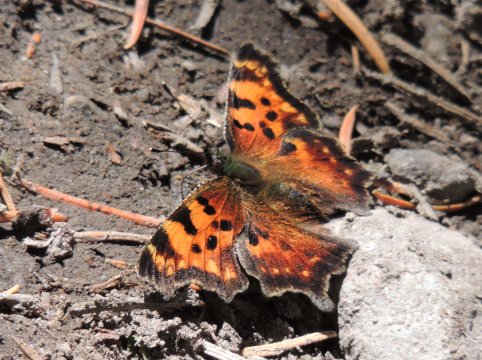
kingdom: Animalia
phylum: Arthropoda
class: Insecta
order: Lepidoptera
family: Nymphalidae
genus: Polygonia
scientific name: Polygonia faunus
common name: Green Comma
